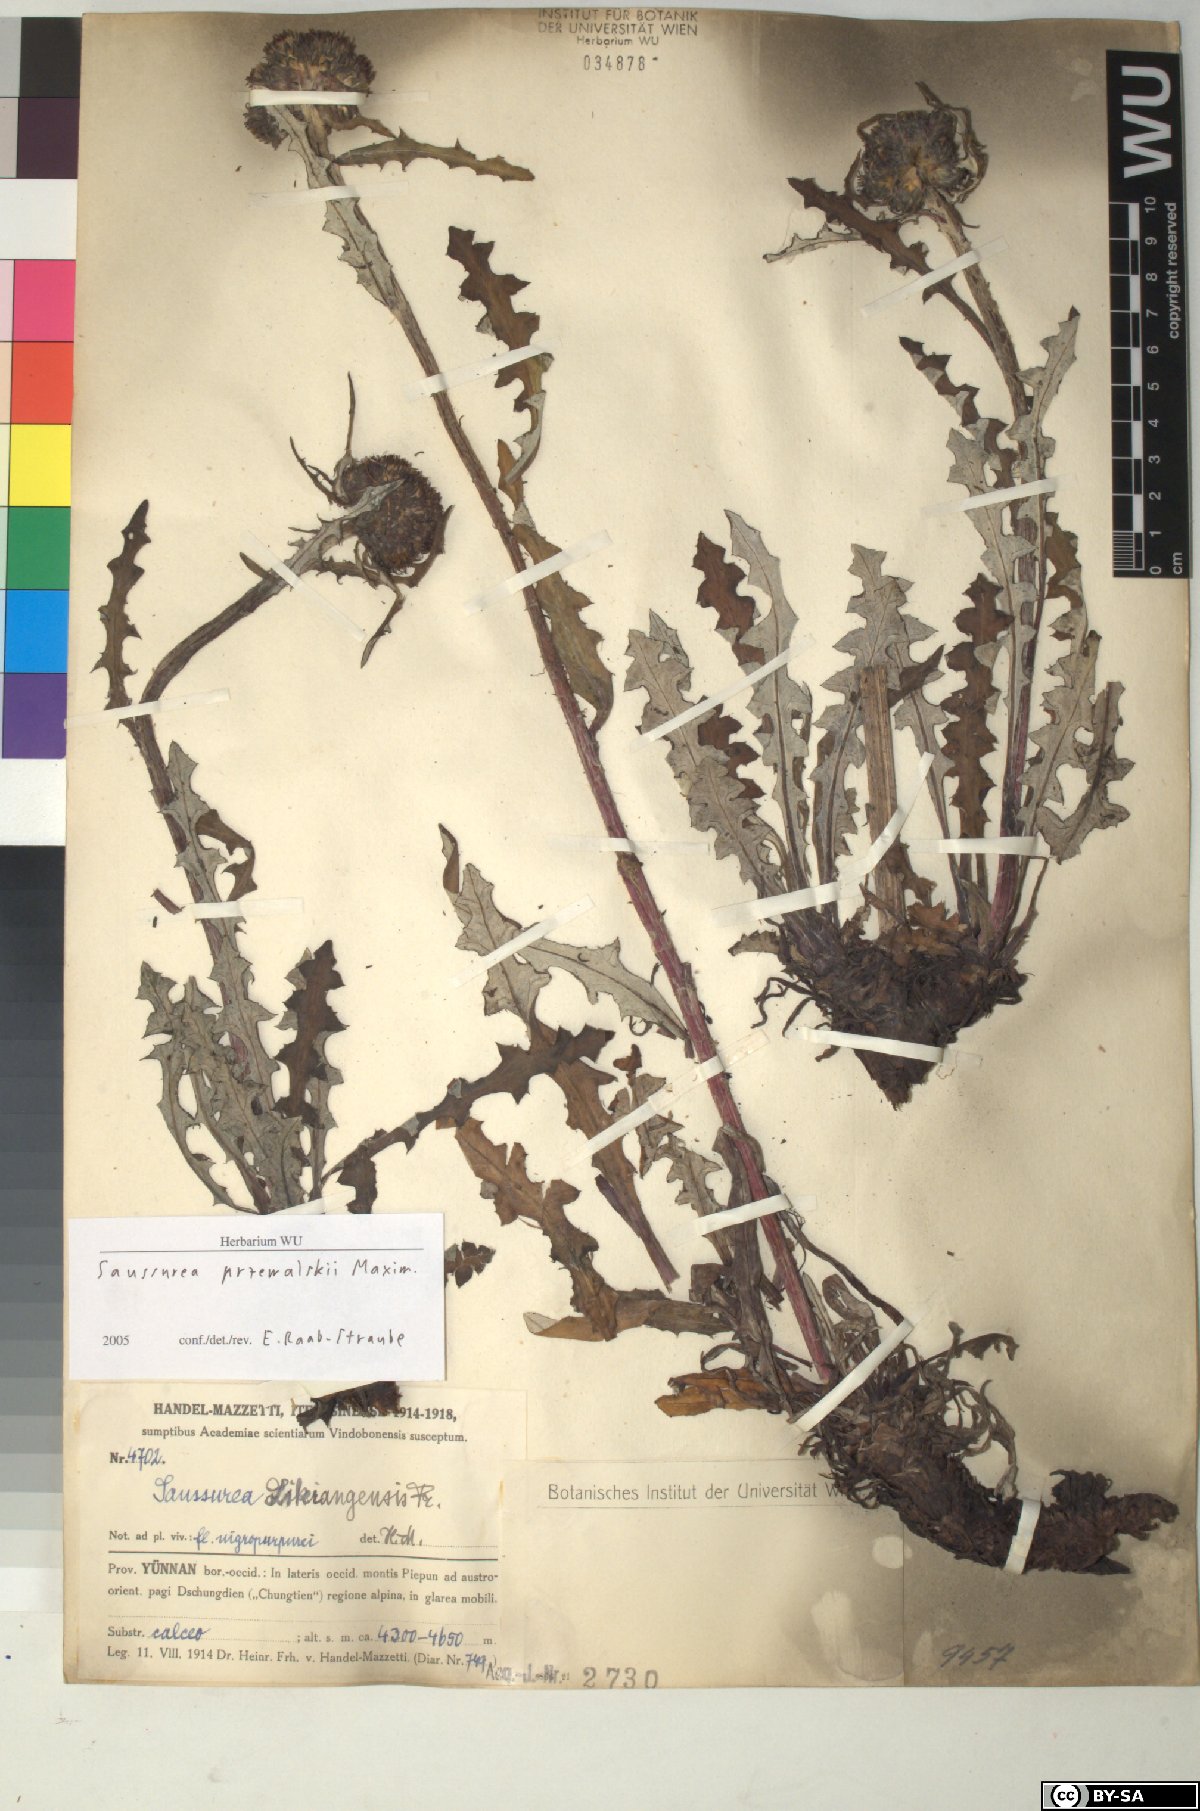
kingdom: Plantae
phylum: Tracheophyta
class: Magnoliopsida
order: Asterales
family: Asteraceae
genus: Saussurea
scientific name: Saussurea przewalskii
